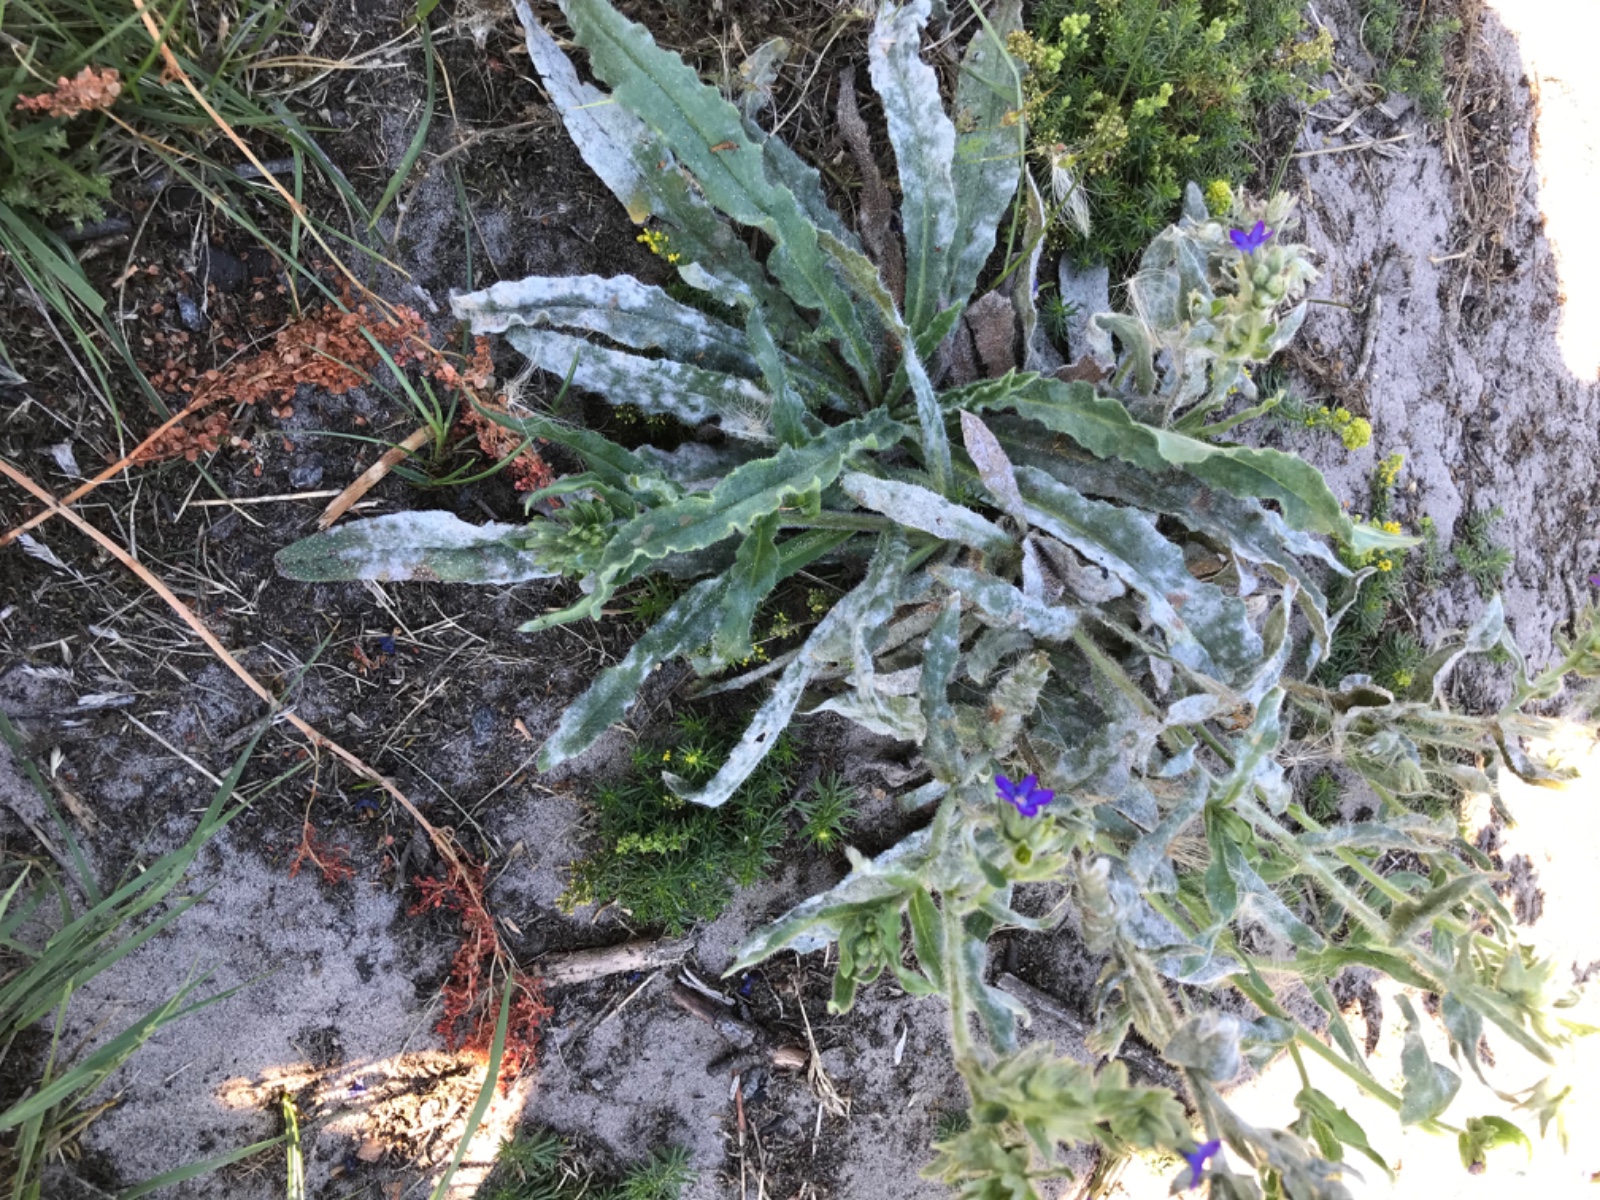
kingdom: Fungi
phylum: Ascomycota
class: Leotiomycetes
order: Helotiales
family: Erysiphaceae
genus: Erysiphe
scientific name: Erysiphe
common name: meldug
